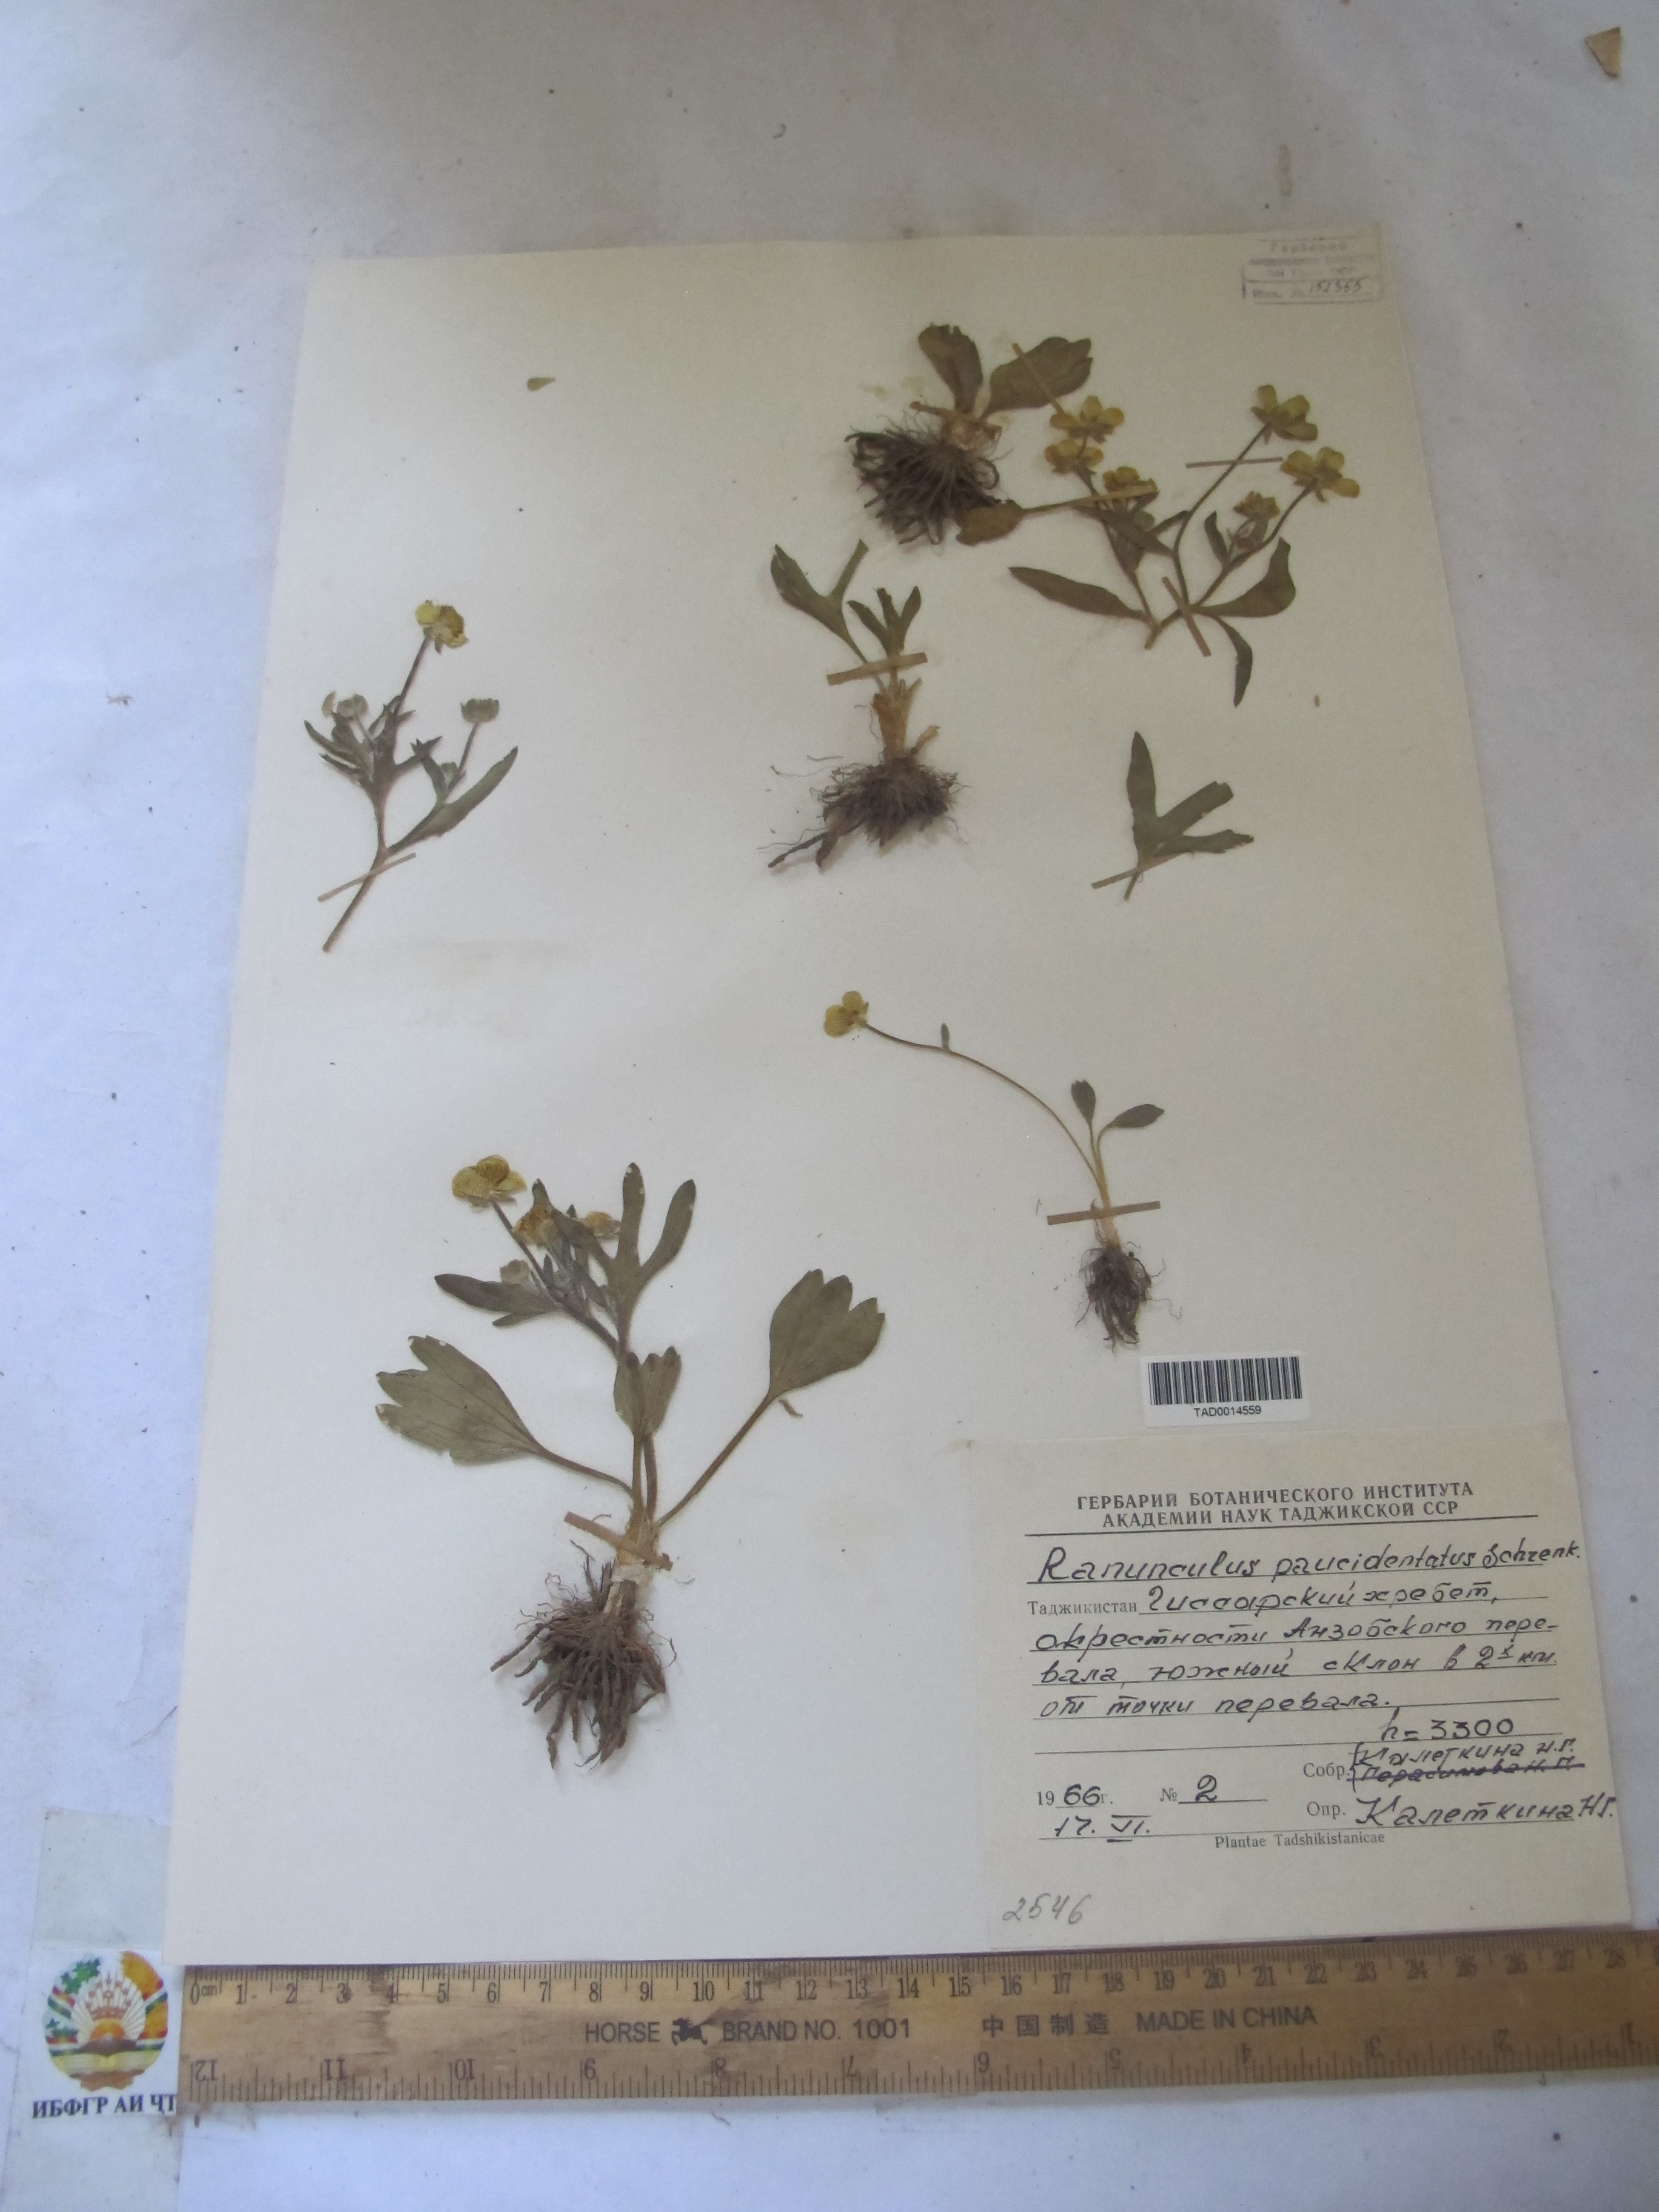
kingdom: Plantae
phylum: Tracheophyta
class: Magnoliopsida
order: Ranunculales
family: Ranunculaceae
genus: Ranunculus
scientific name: Ranunculus
